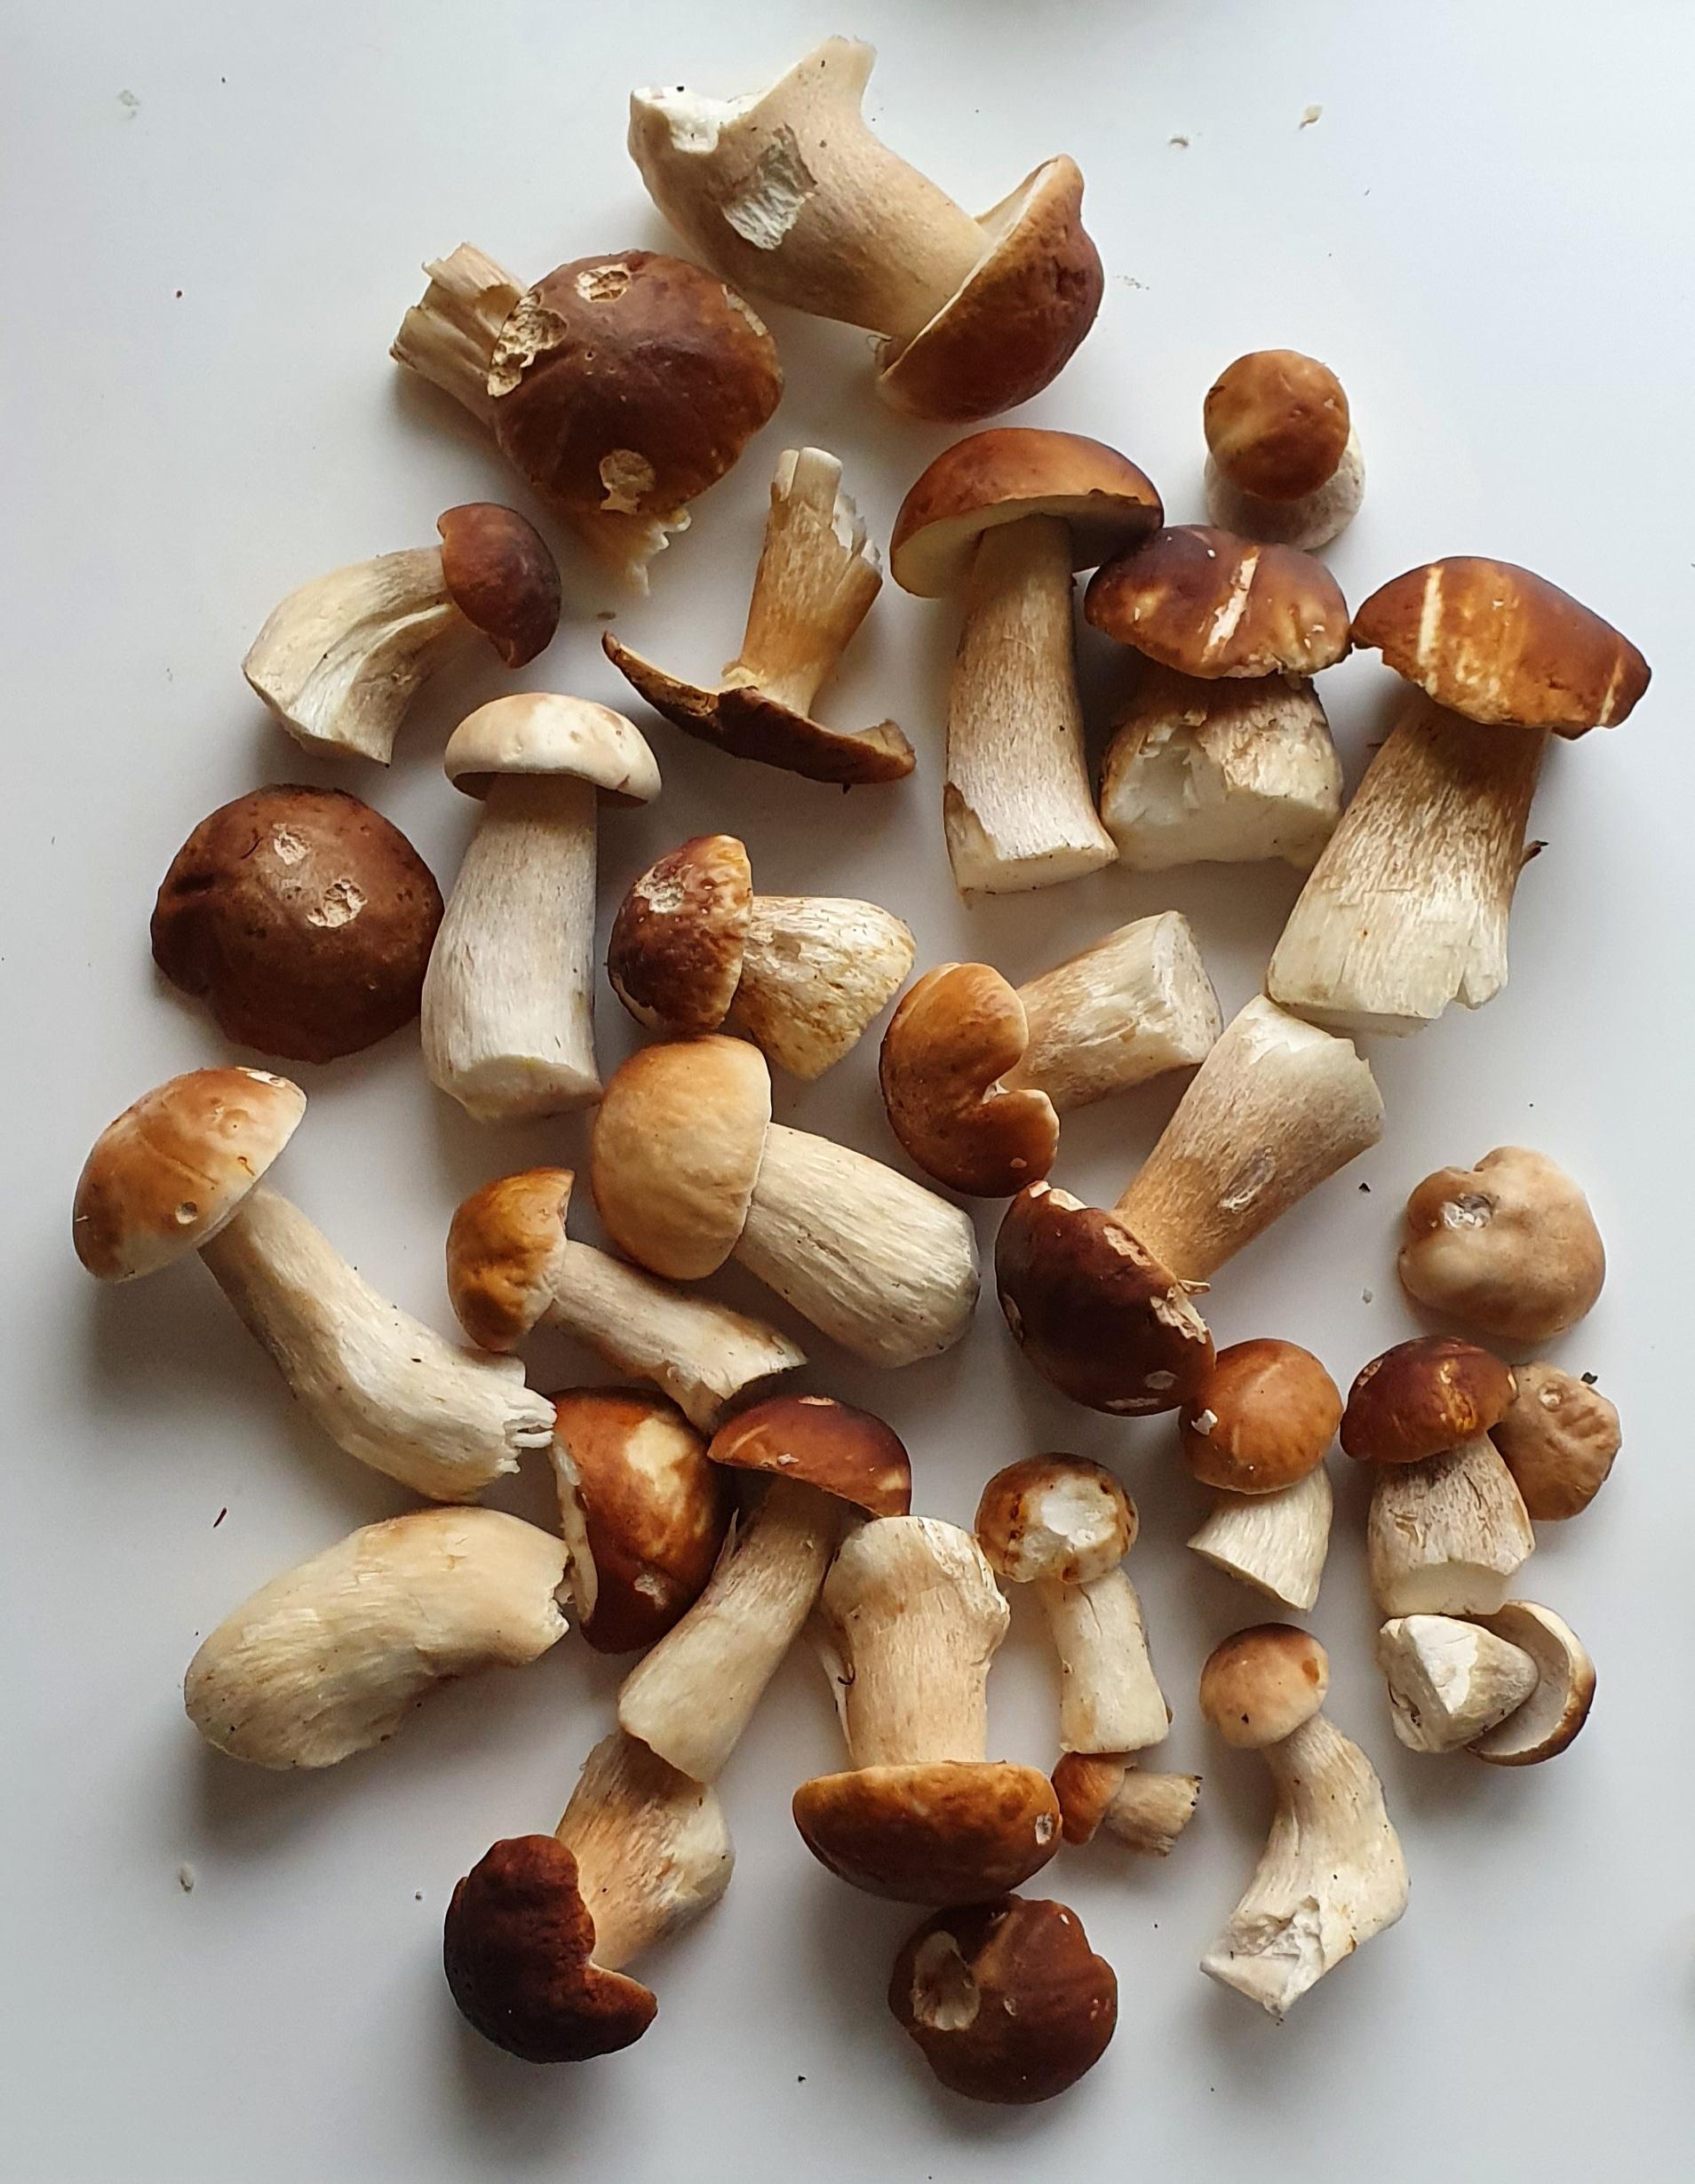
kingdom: Fungi
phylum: Basidiomycota
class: Agaricomycetes
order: Boletales
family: Boletaceae
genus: Boletus
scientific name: Boletus edulis
